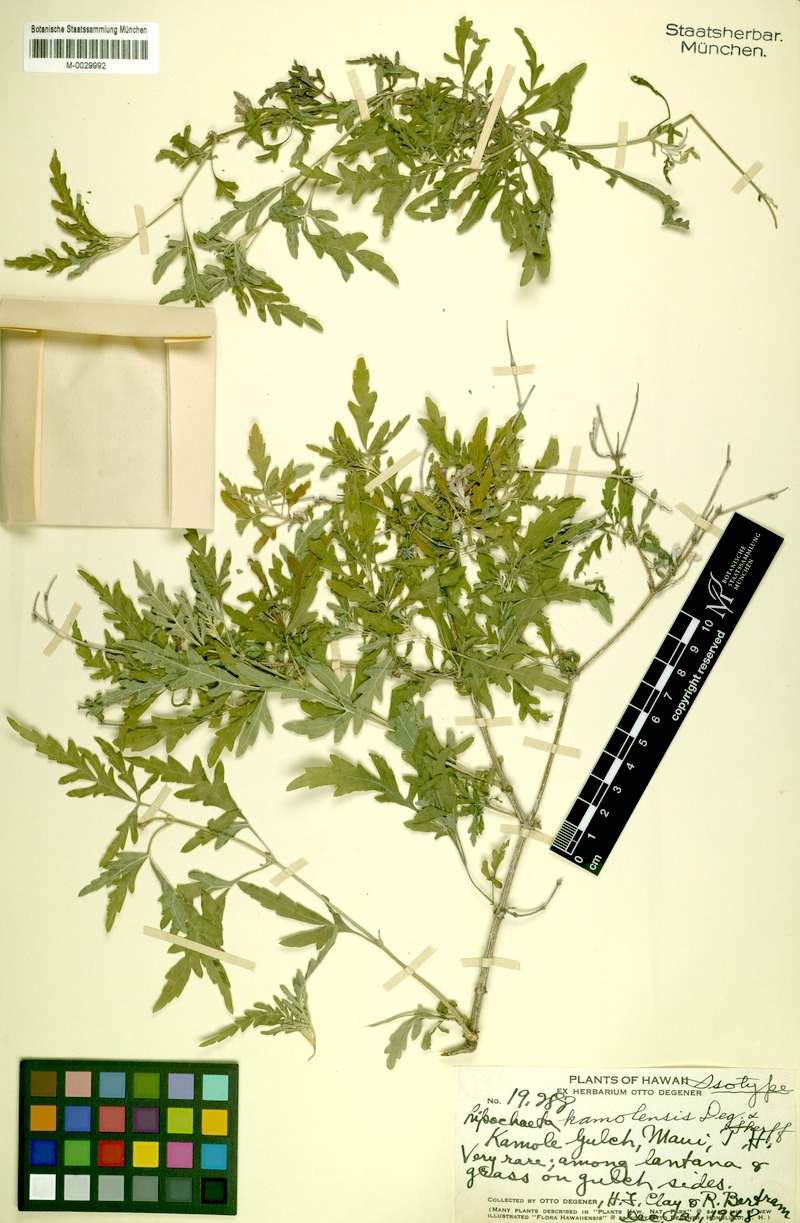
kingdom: Plantae
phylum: Tracheophyta
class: Magnoliopsida
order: Asterales
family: Asteraceae
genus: Lipochaeta
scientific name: Lipochaeta kamolensis
